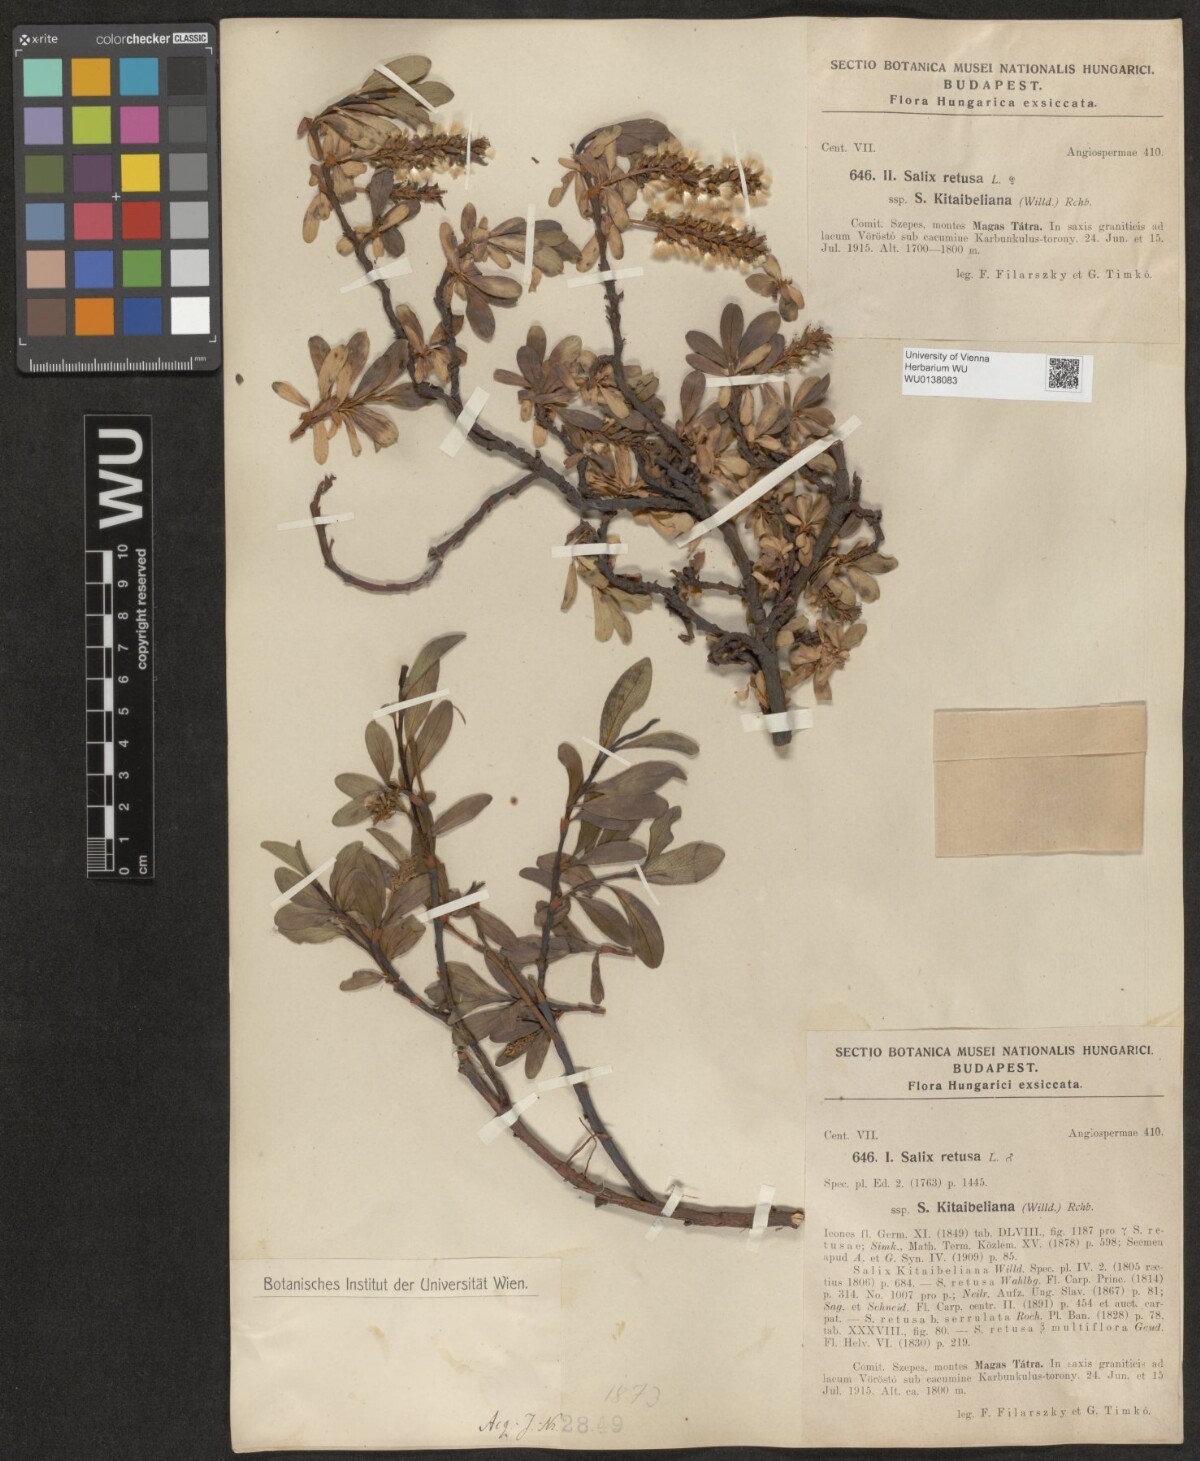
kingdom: Plantae
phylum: Tracheophyta
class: Magnoliopsida
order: Malpighiales
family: Salicaceae
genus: Salix
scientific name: Salix retusa
